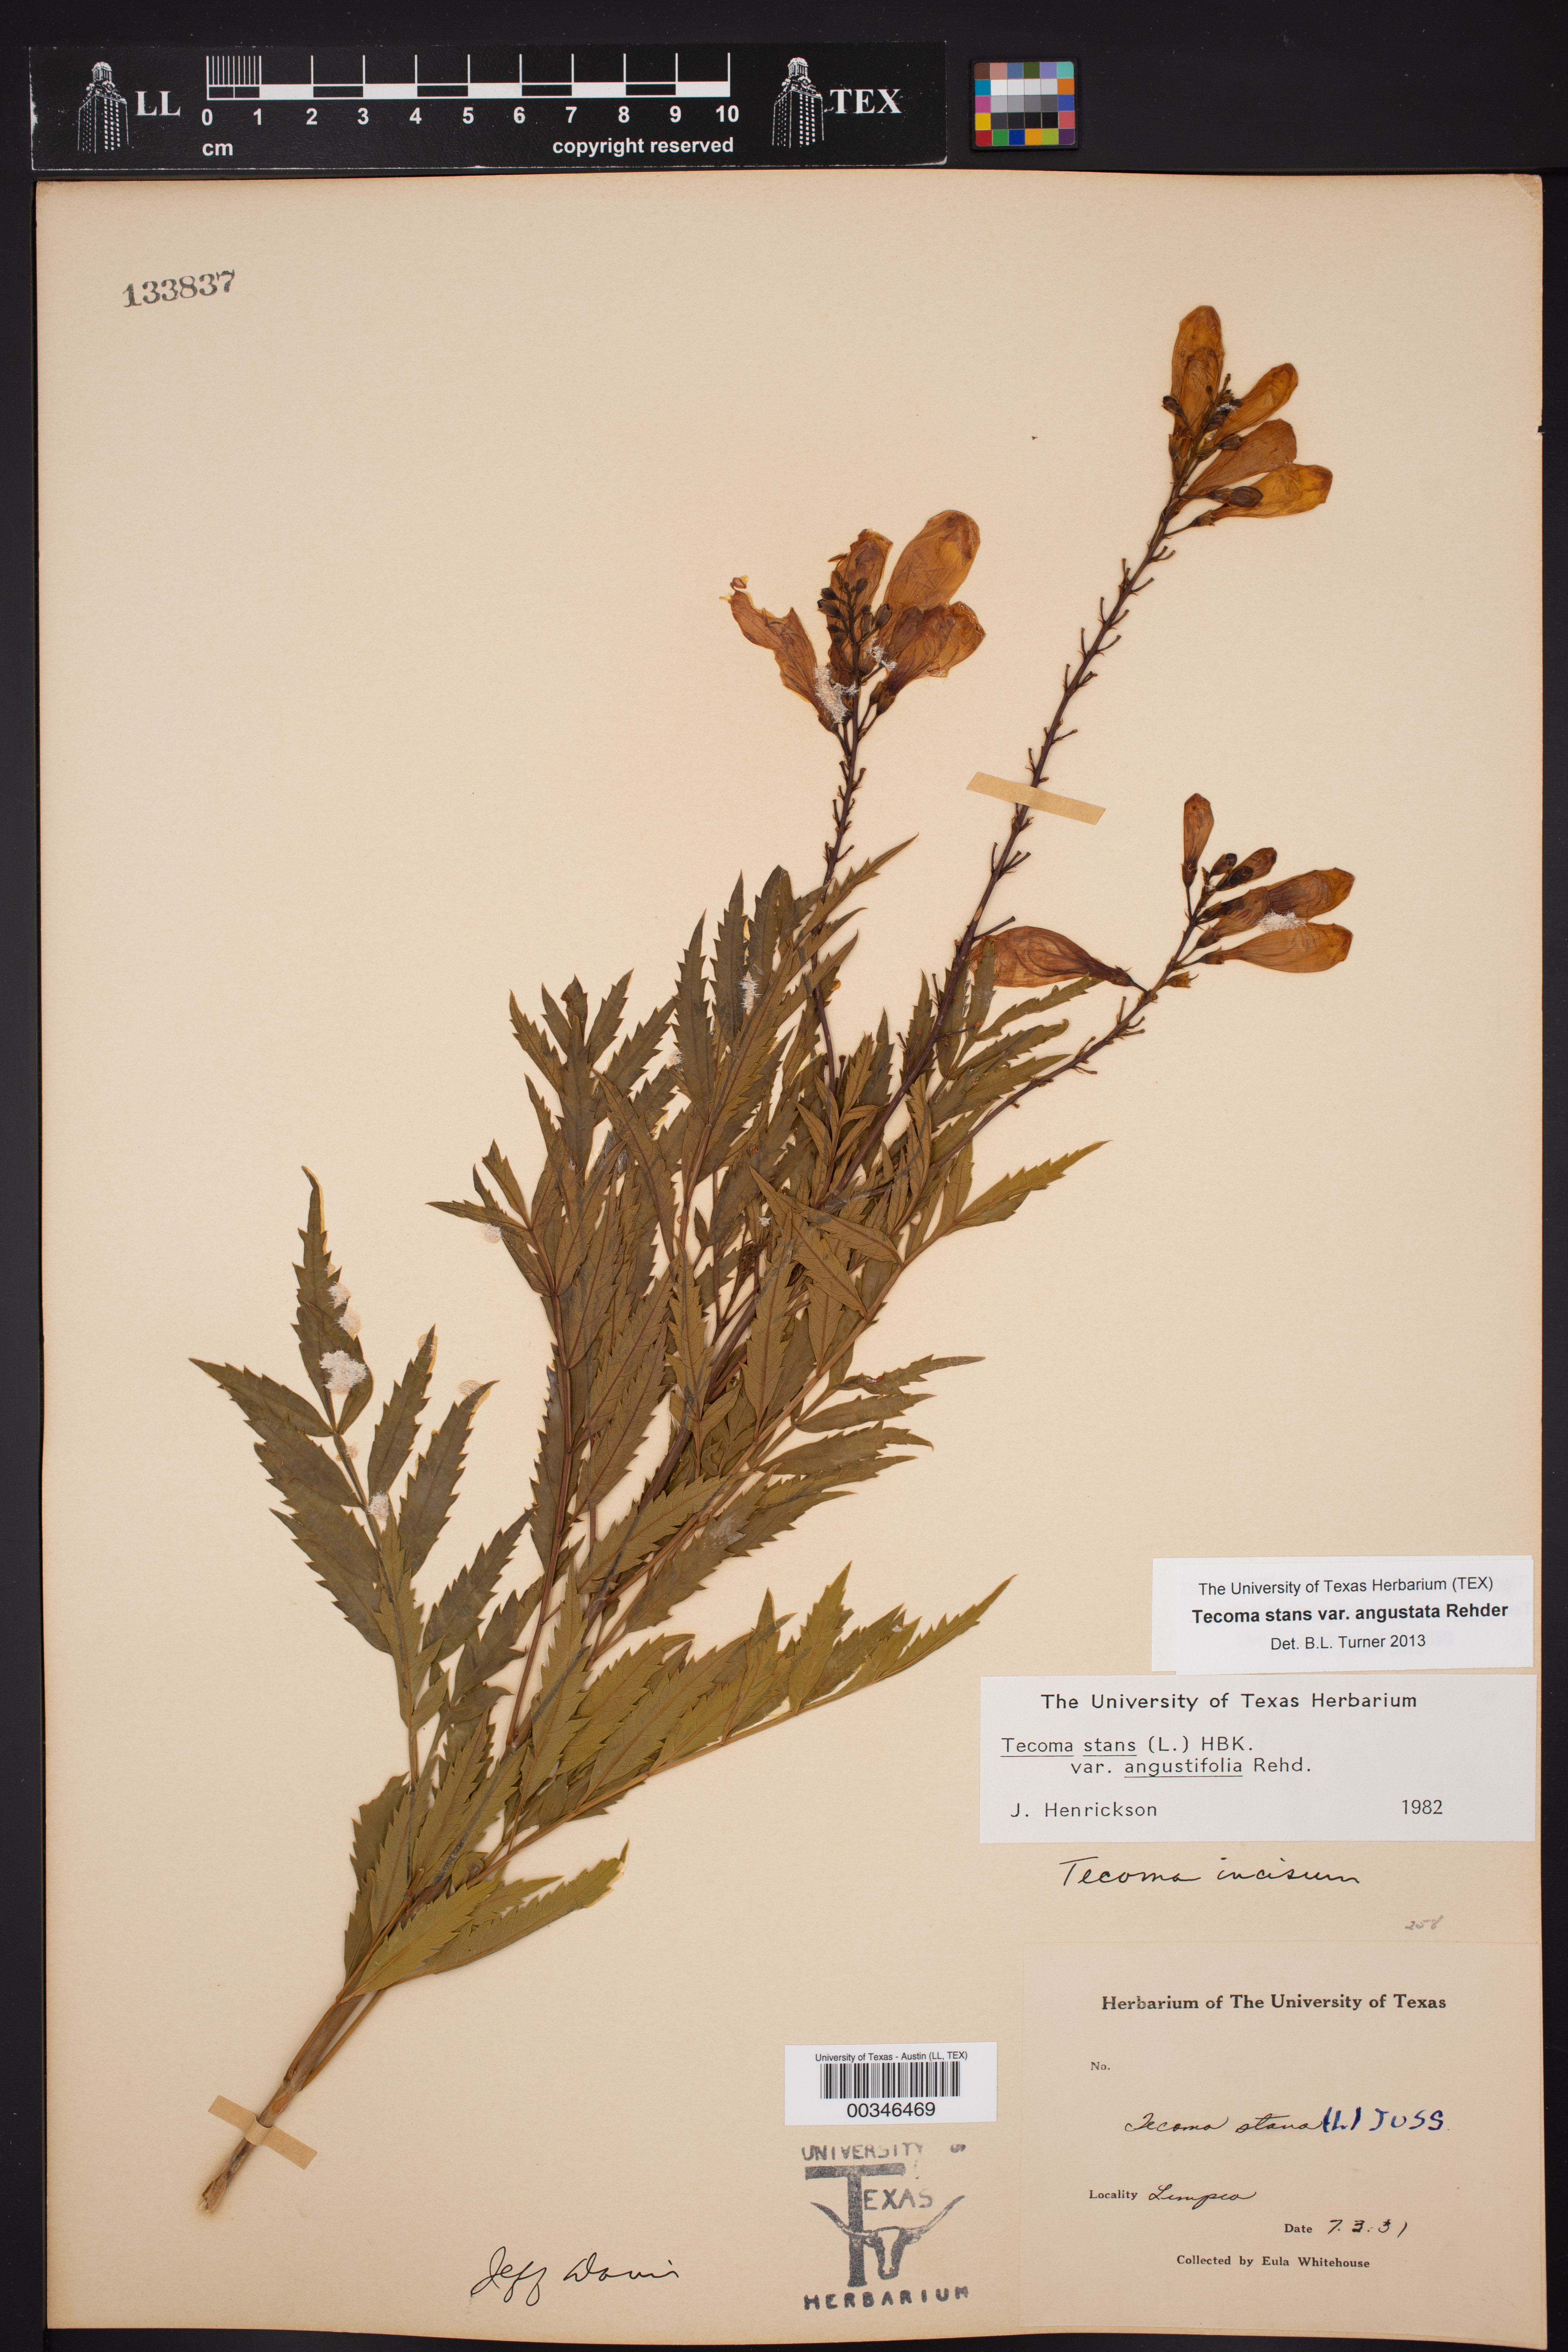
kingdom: Plantae
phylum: Tracheophyta
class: Magnoliopsida
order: Lamiales
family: Bignoniaceae
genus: Tecoma
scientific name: Tecoma stans
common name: Yellow trumpetbush
